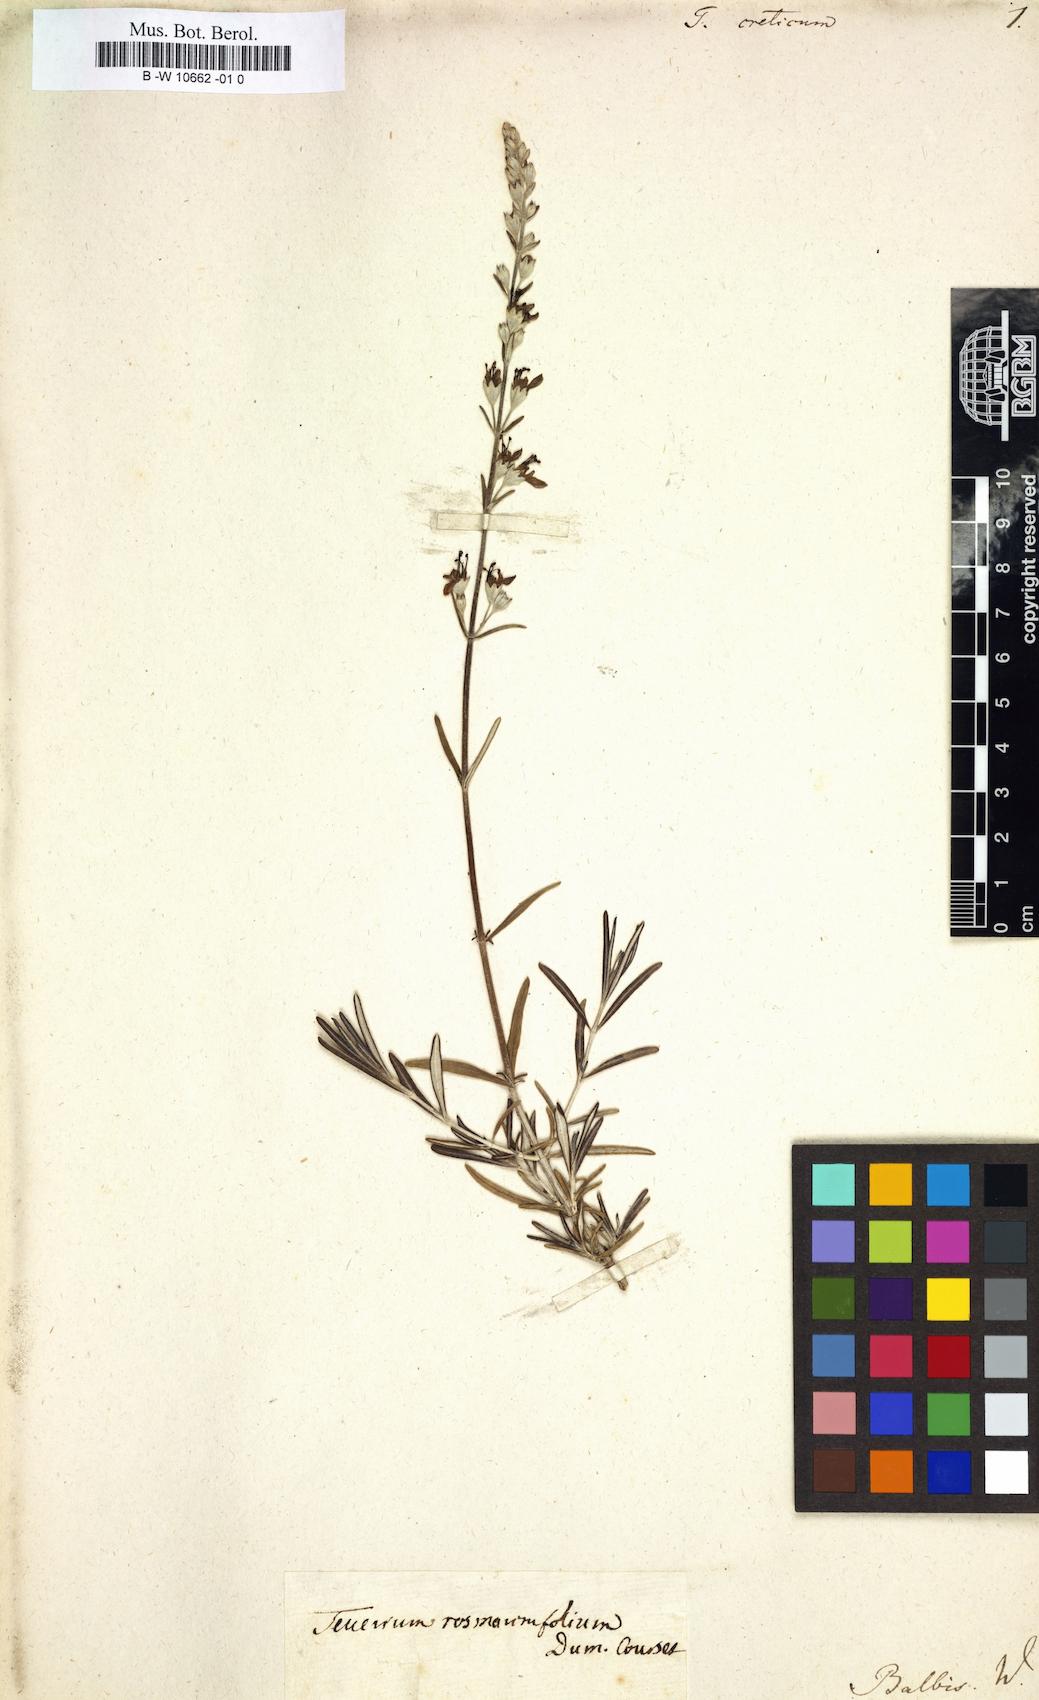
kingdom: Plantae
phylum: Tracheophyta
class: Magnoliopsida
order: Lamiales
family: Lamiaceae
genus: Teucrium
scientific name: Teucrium creticum
